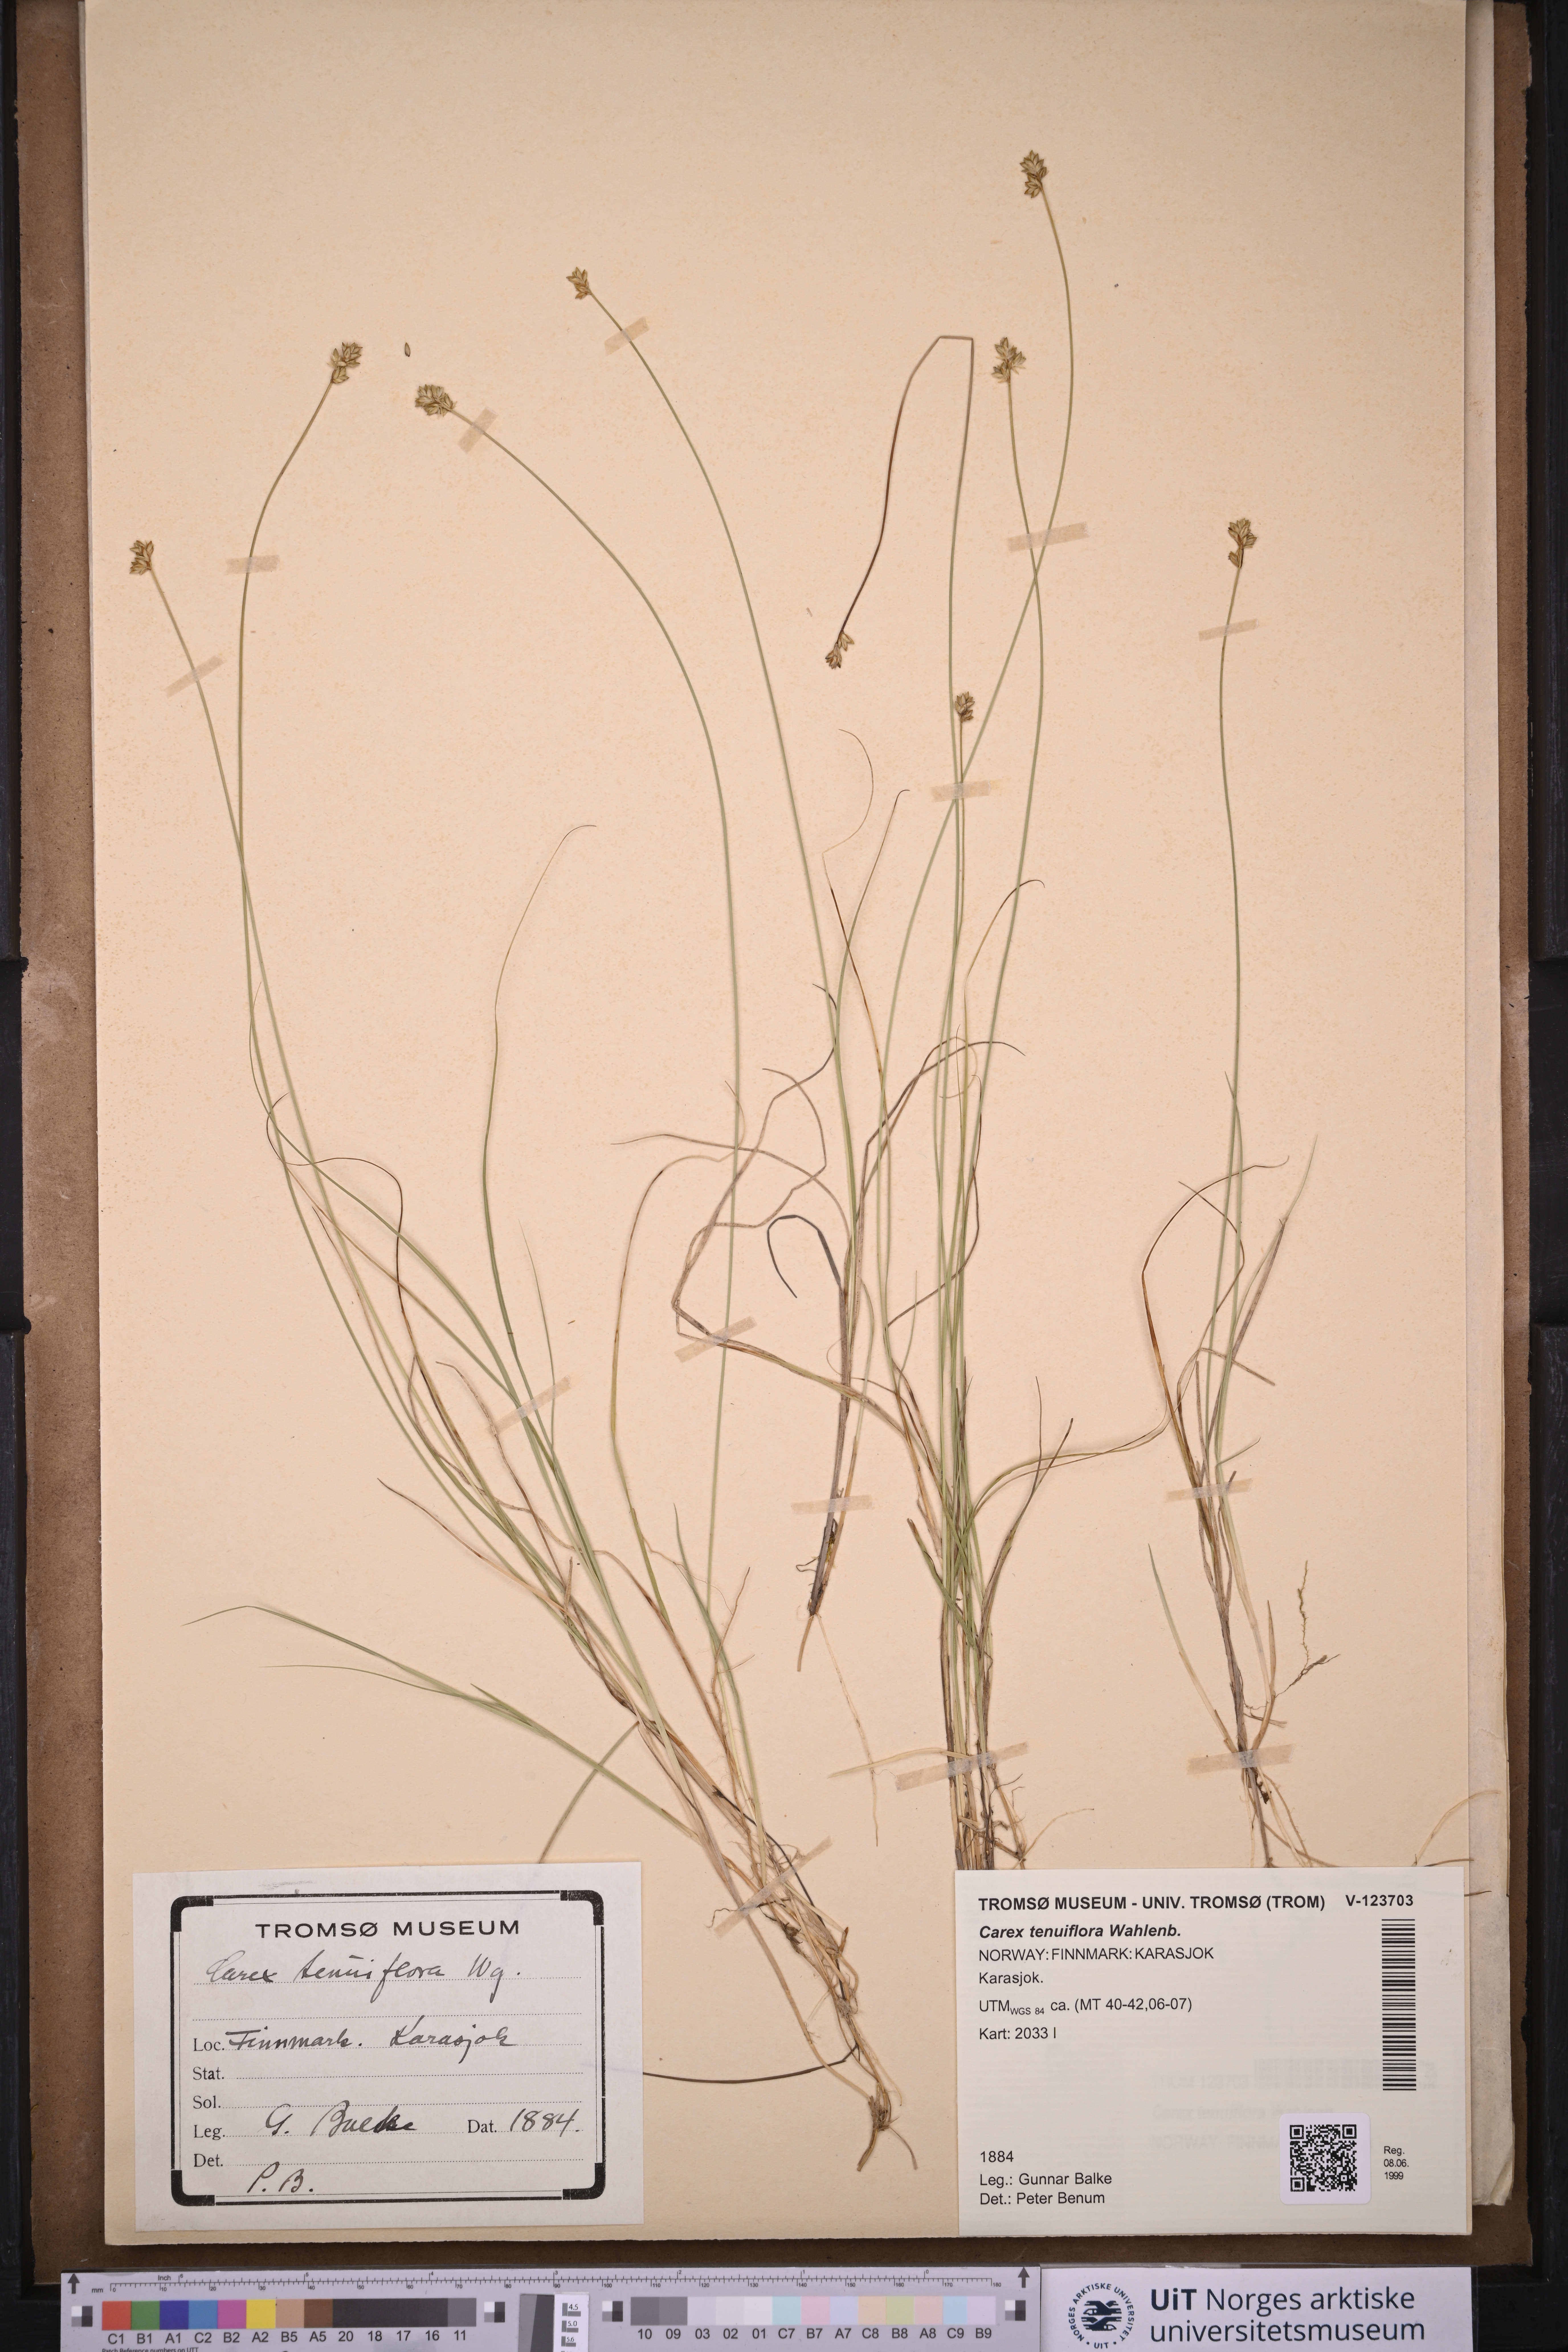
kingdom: Plantae
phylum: Tracheophyta
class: Liliopsida
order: Poales
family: Cyperaceae
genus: Carex
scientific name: Carex tenuiflora
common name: Sparse-flowered sedge
